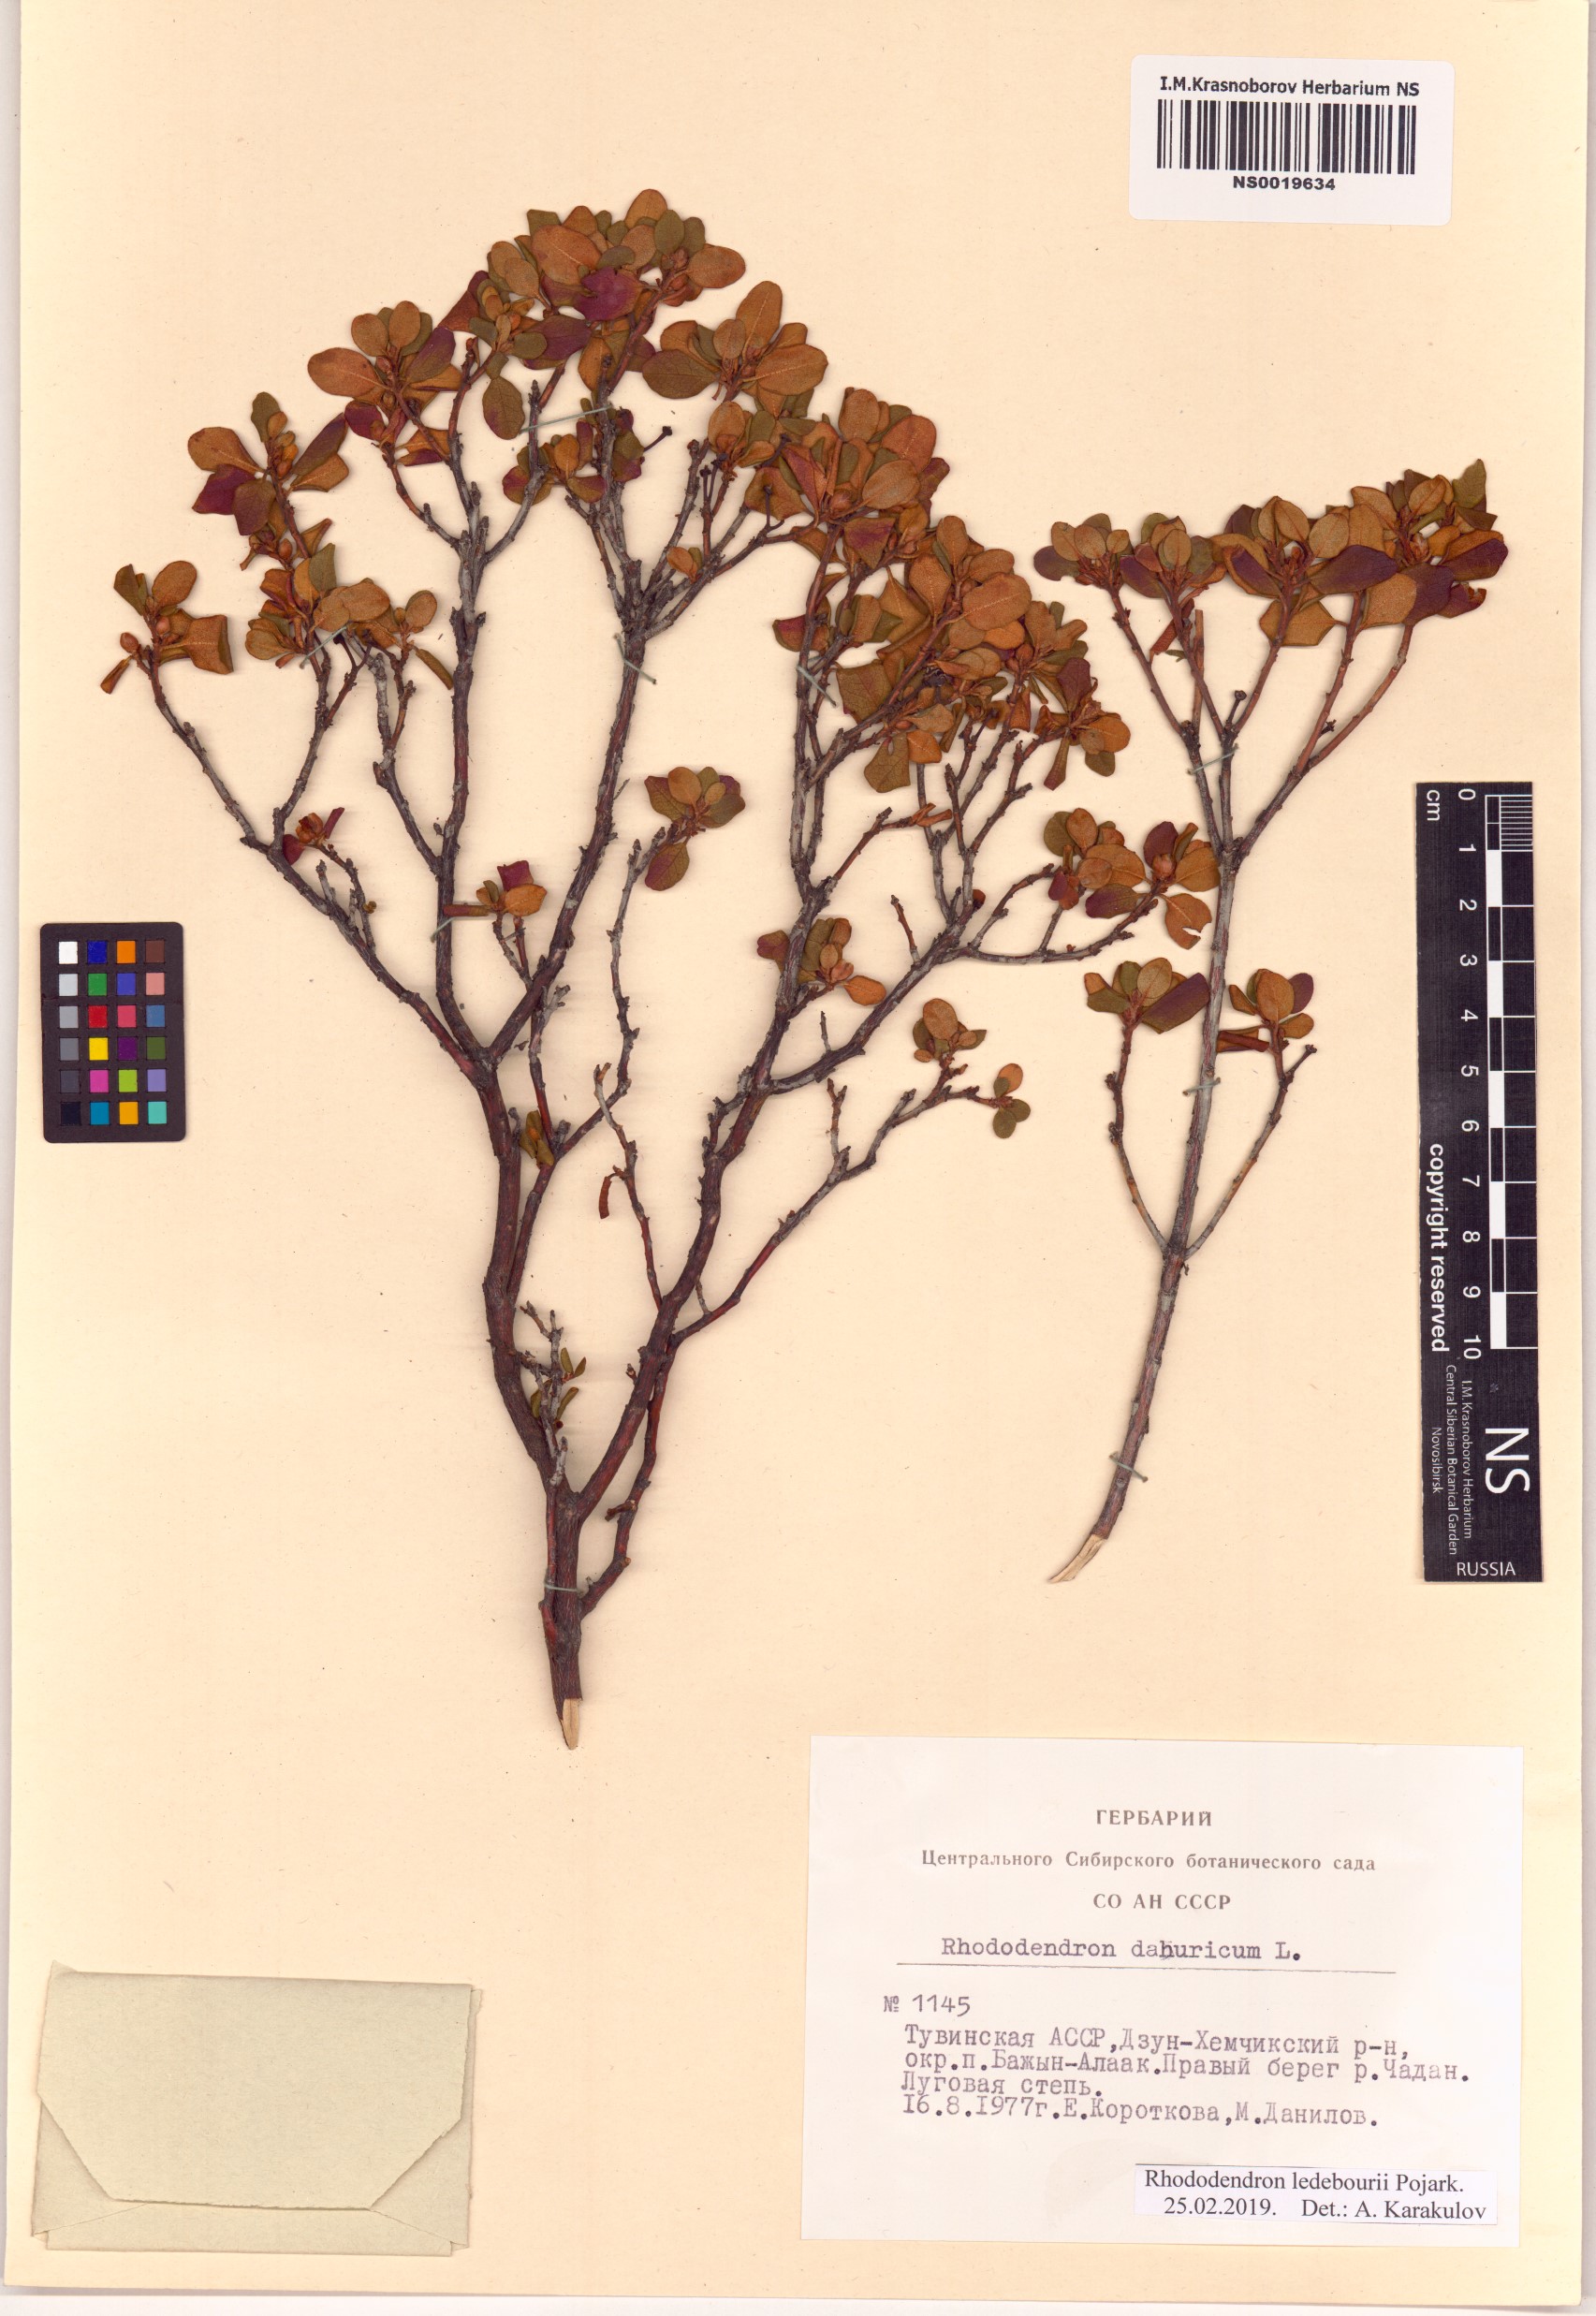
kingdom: Plantae
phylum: Tracheophyta
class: Magnoliopsida
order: Ericales
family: Ericaceae
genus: Rhododendron
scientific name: Rhododendron dauricum
